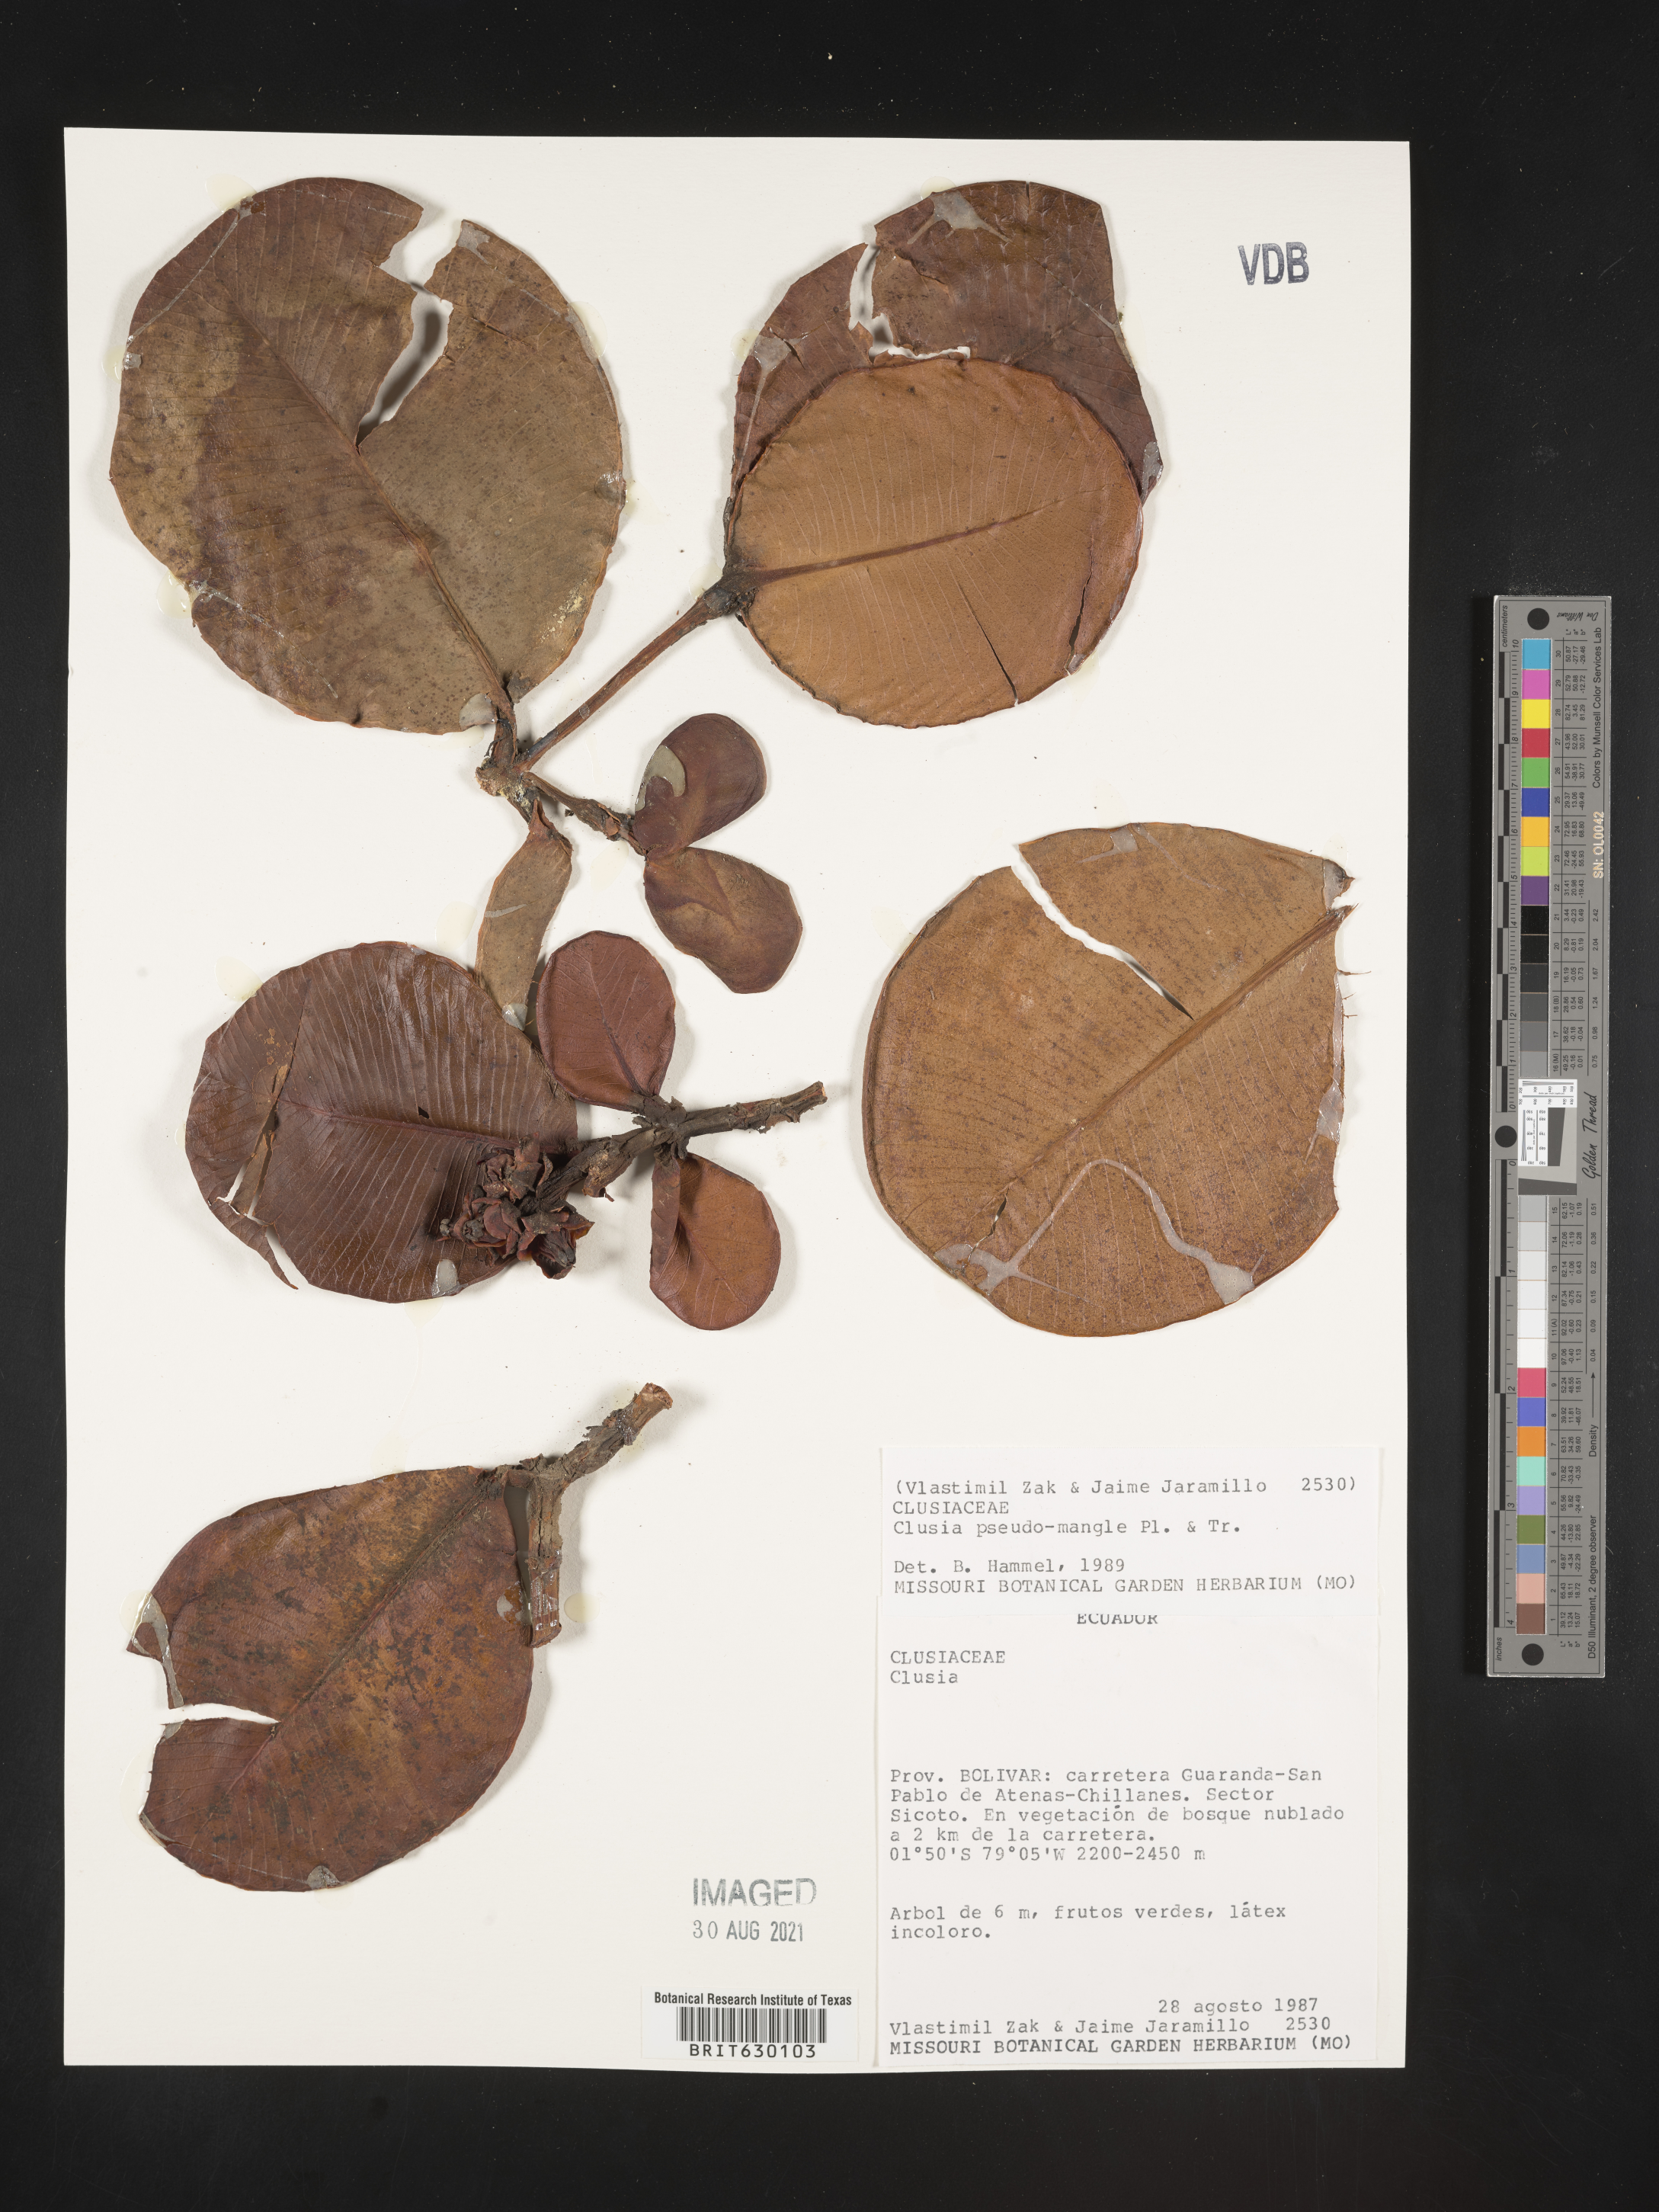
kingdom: Plantae
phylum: Tracheophyta
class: Magnoliopsida
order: Malpighiales
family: Clusiaceae
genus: Clusia
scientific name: Clusia pseudomangle
